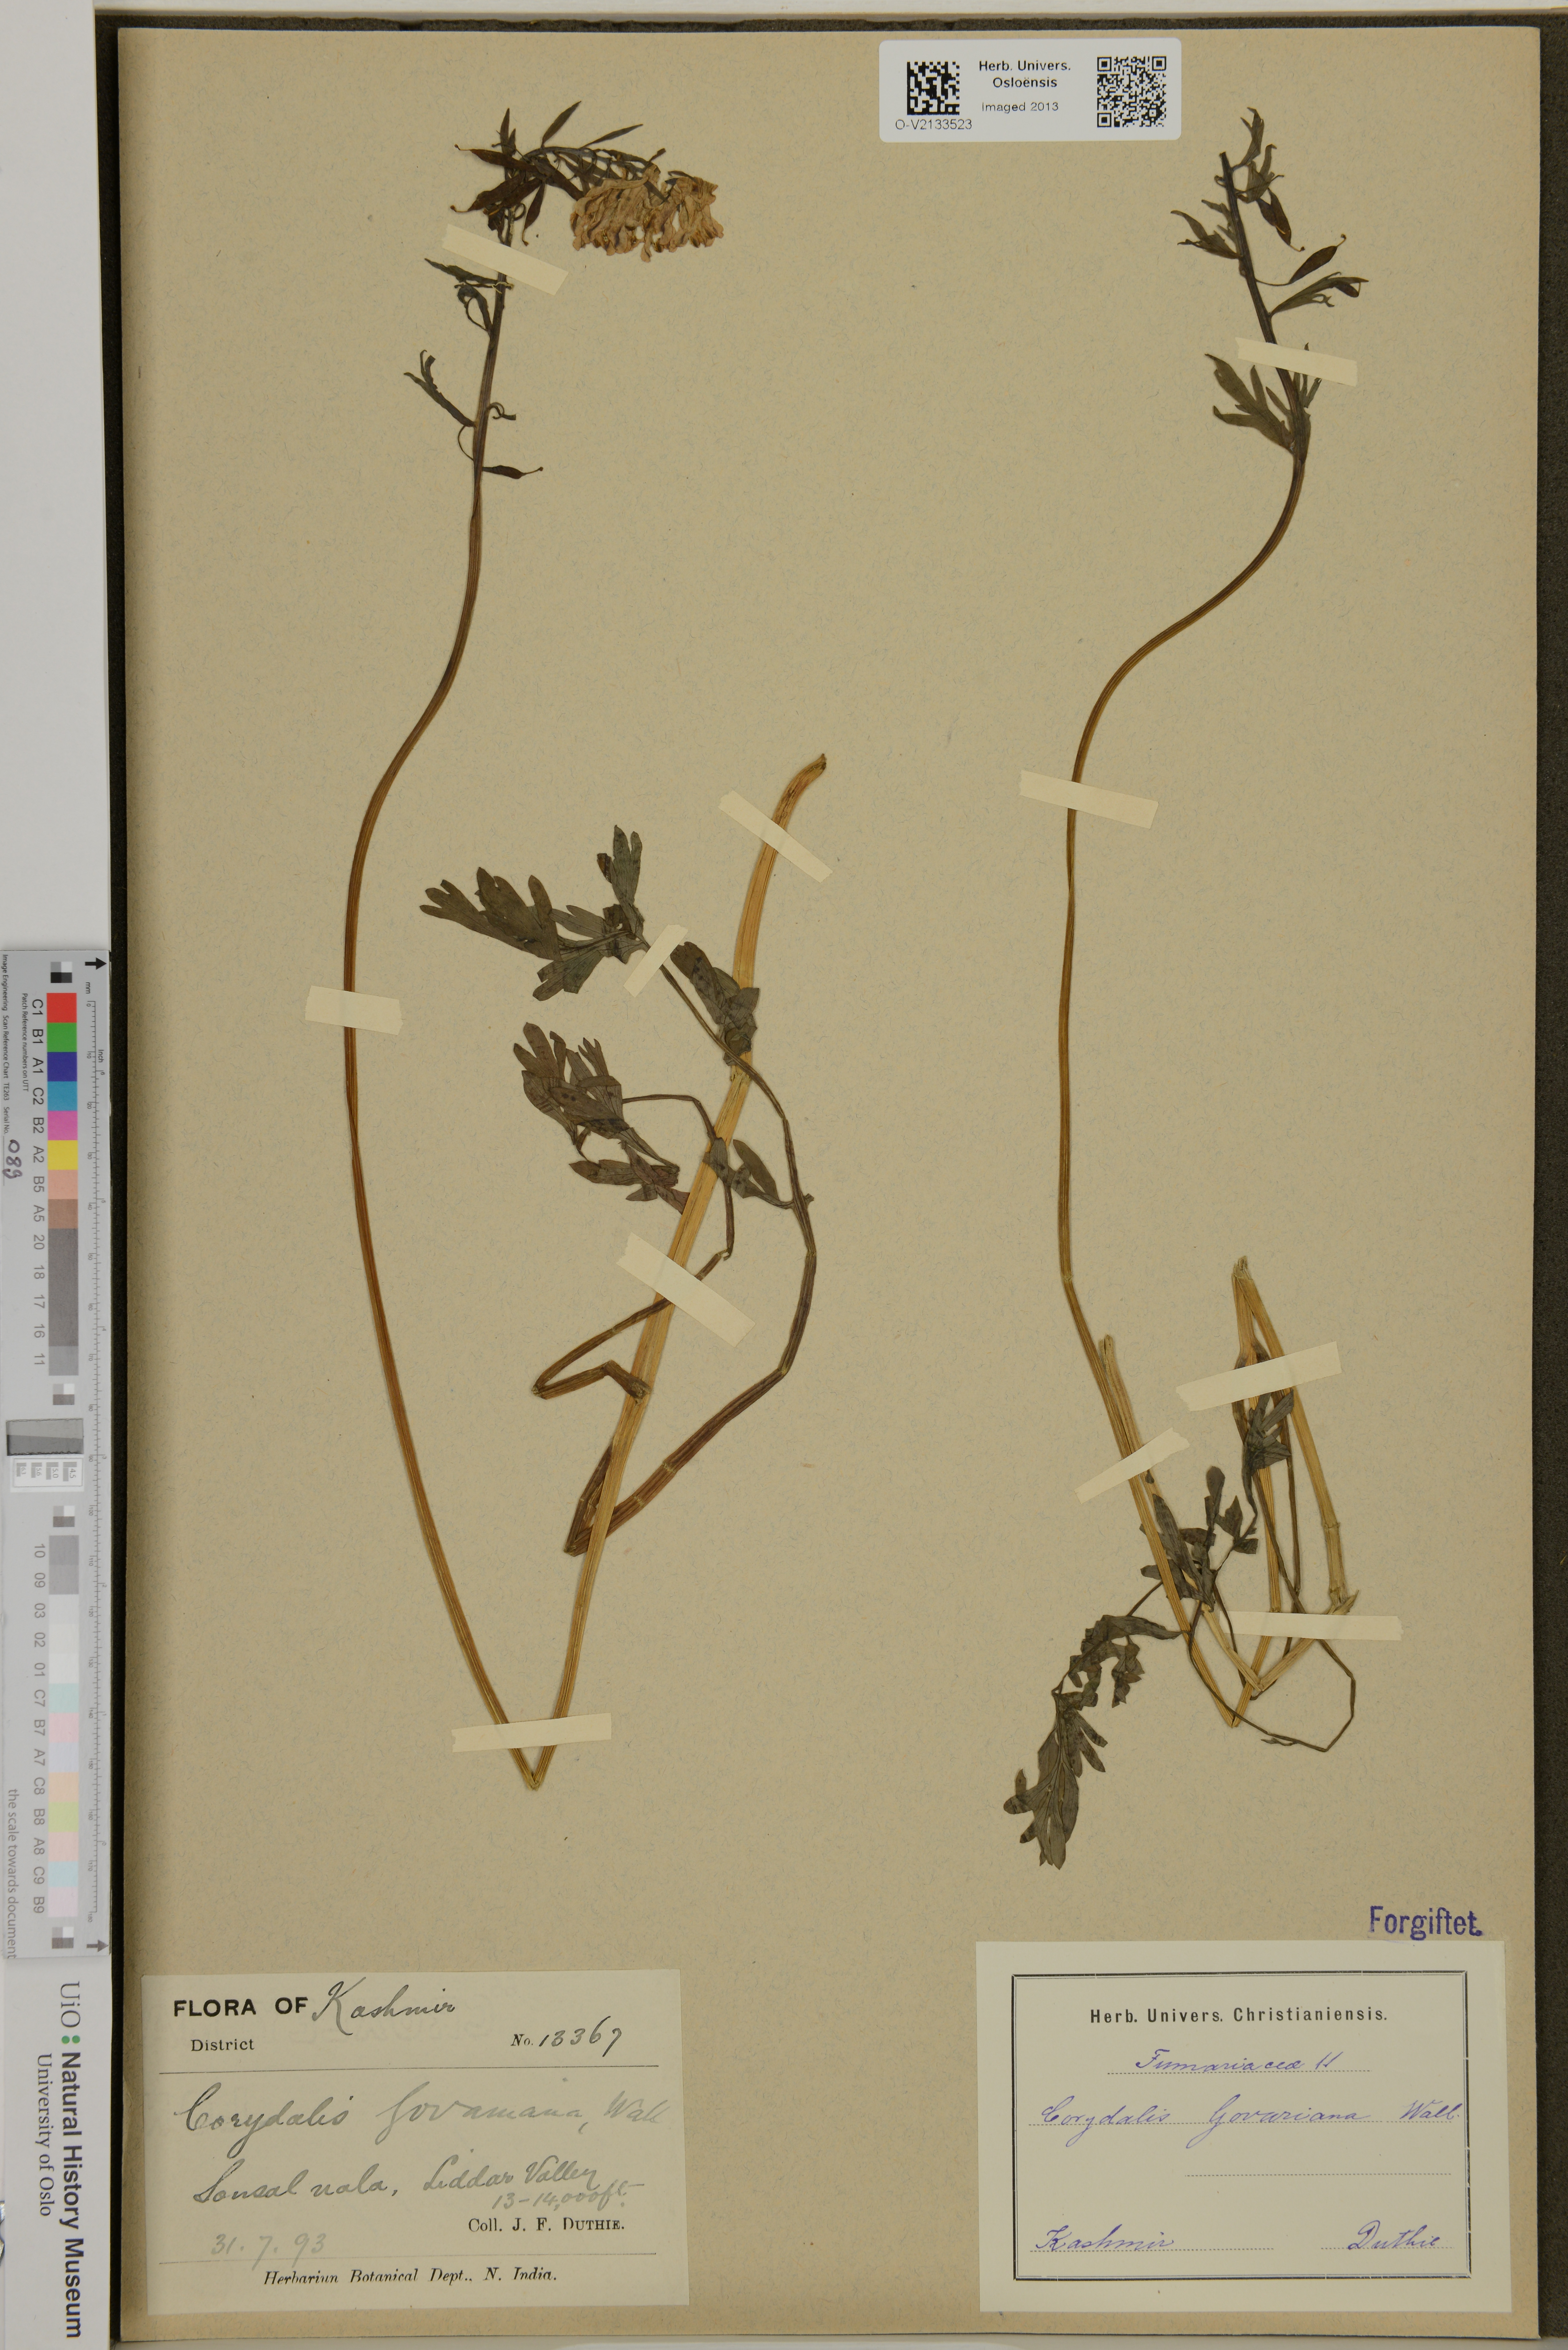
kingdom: Plantae
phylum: Tracheophyta
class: Magnoliopsida
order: Ranunculales
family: Papaveraceae
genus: Corydalis
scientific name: Corydalis govaniana
